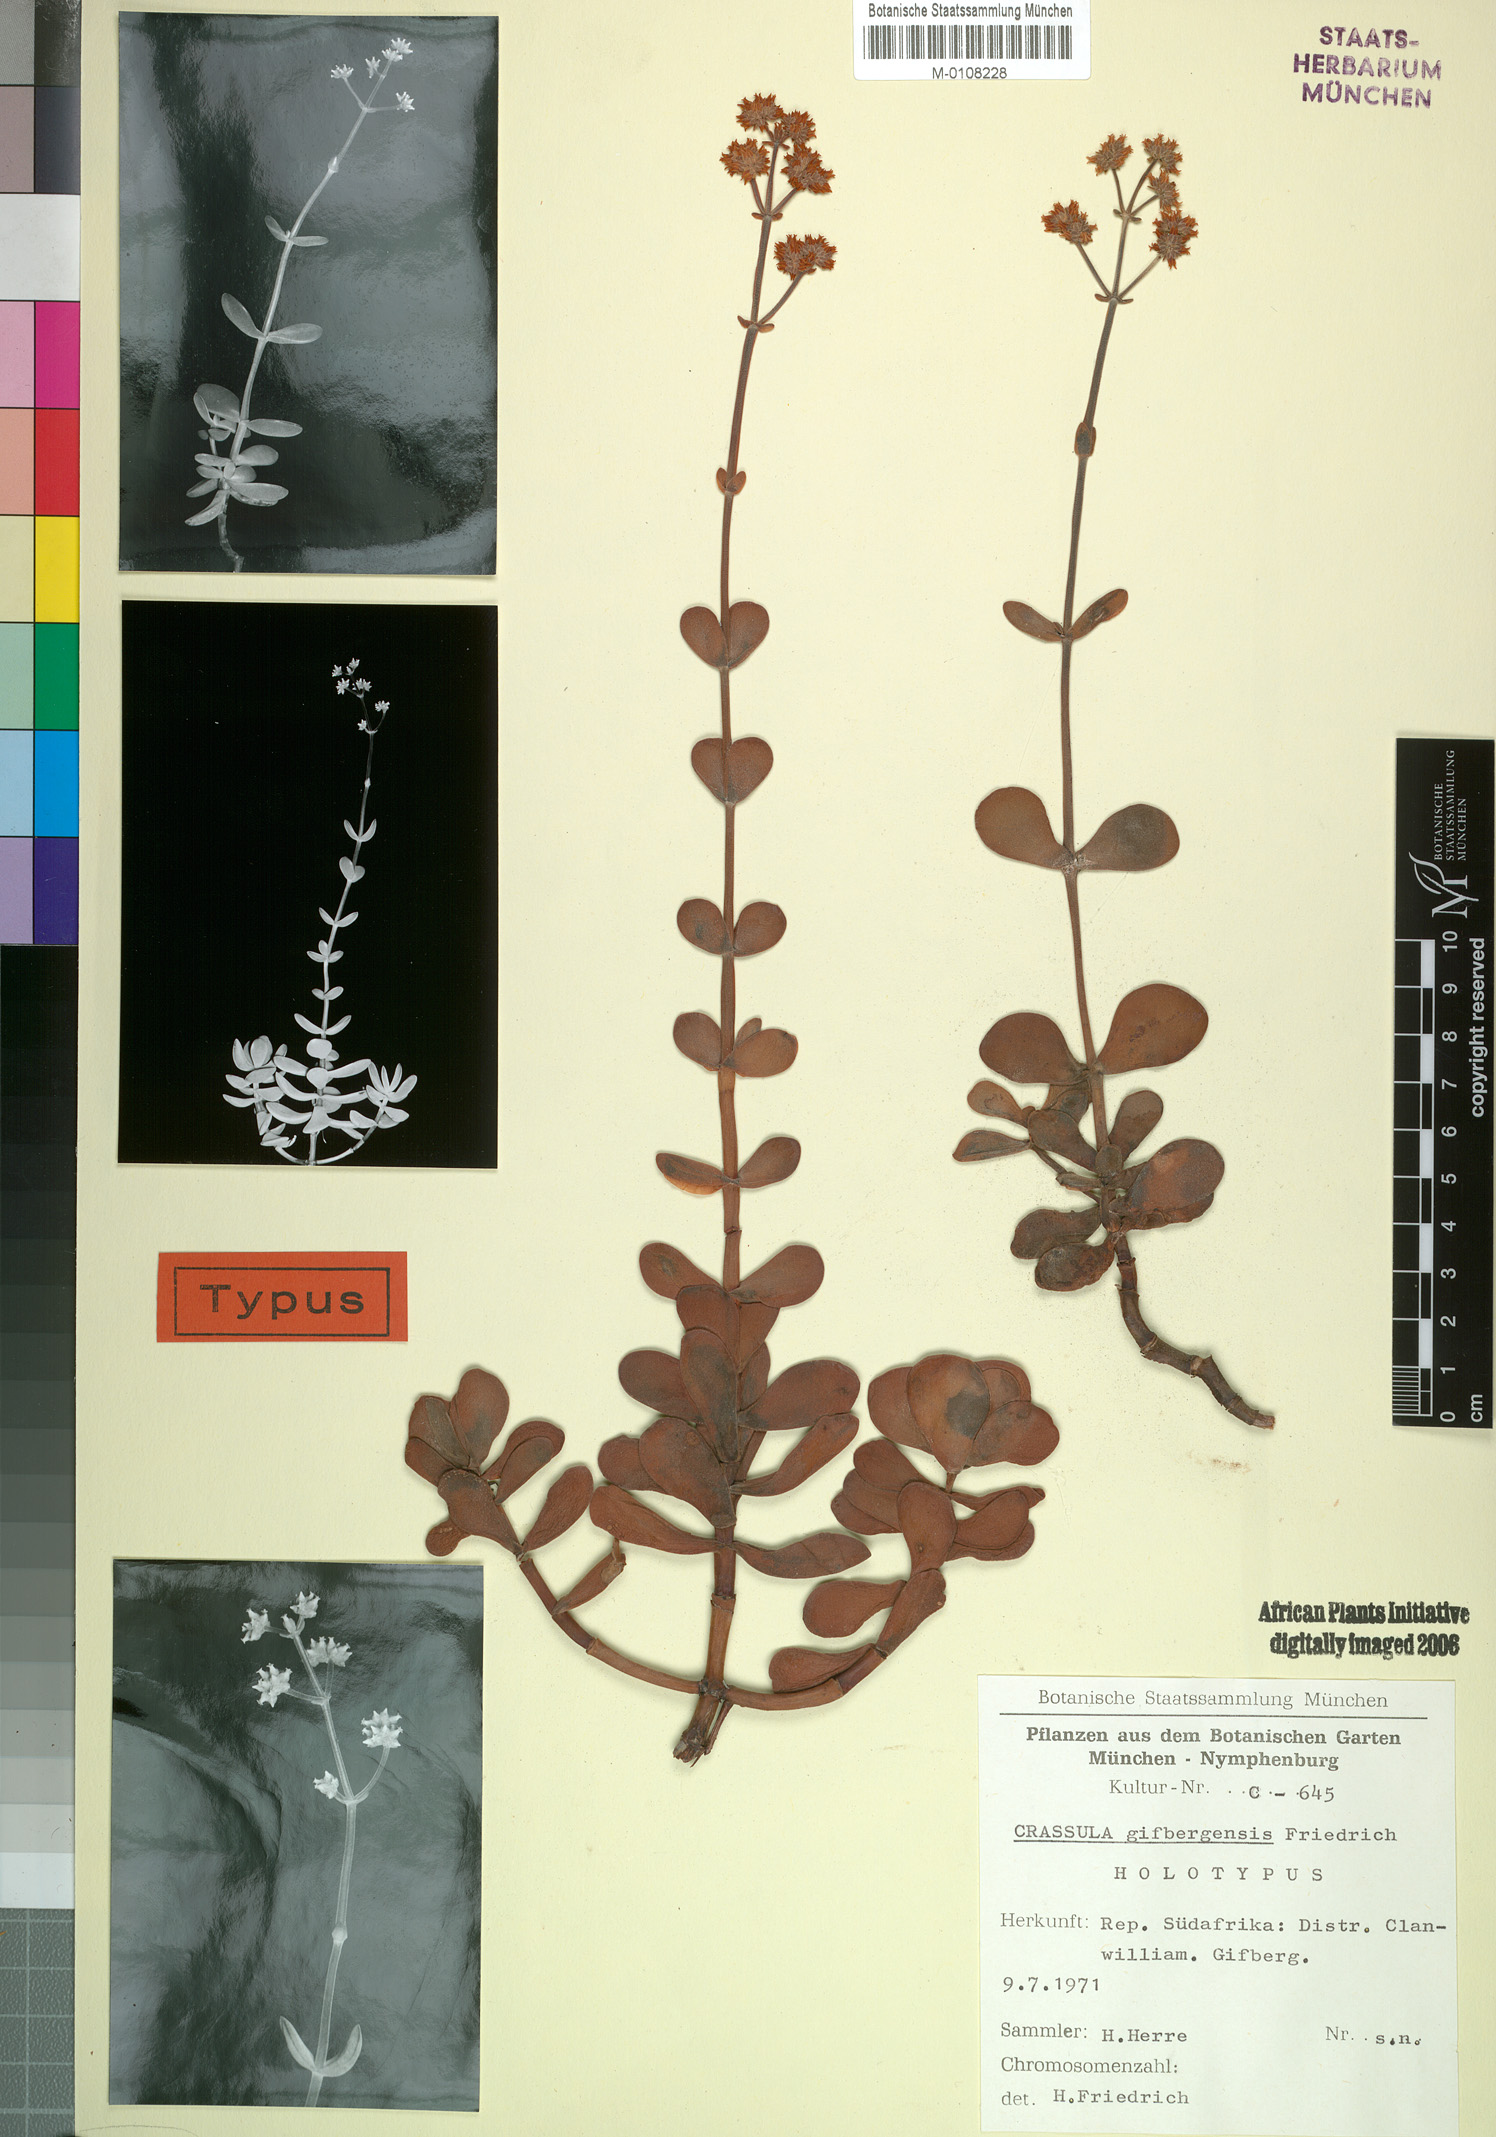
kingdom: Plantae
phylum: Tracheophyta
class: Magnoliopsida
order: Saxifragales
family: Crassulaceae
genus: Crassula
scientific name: Crassula atropurpurea
